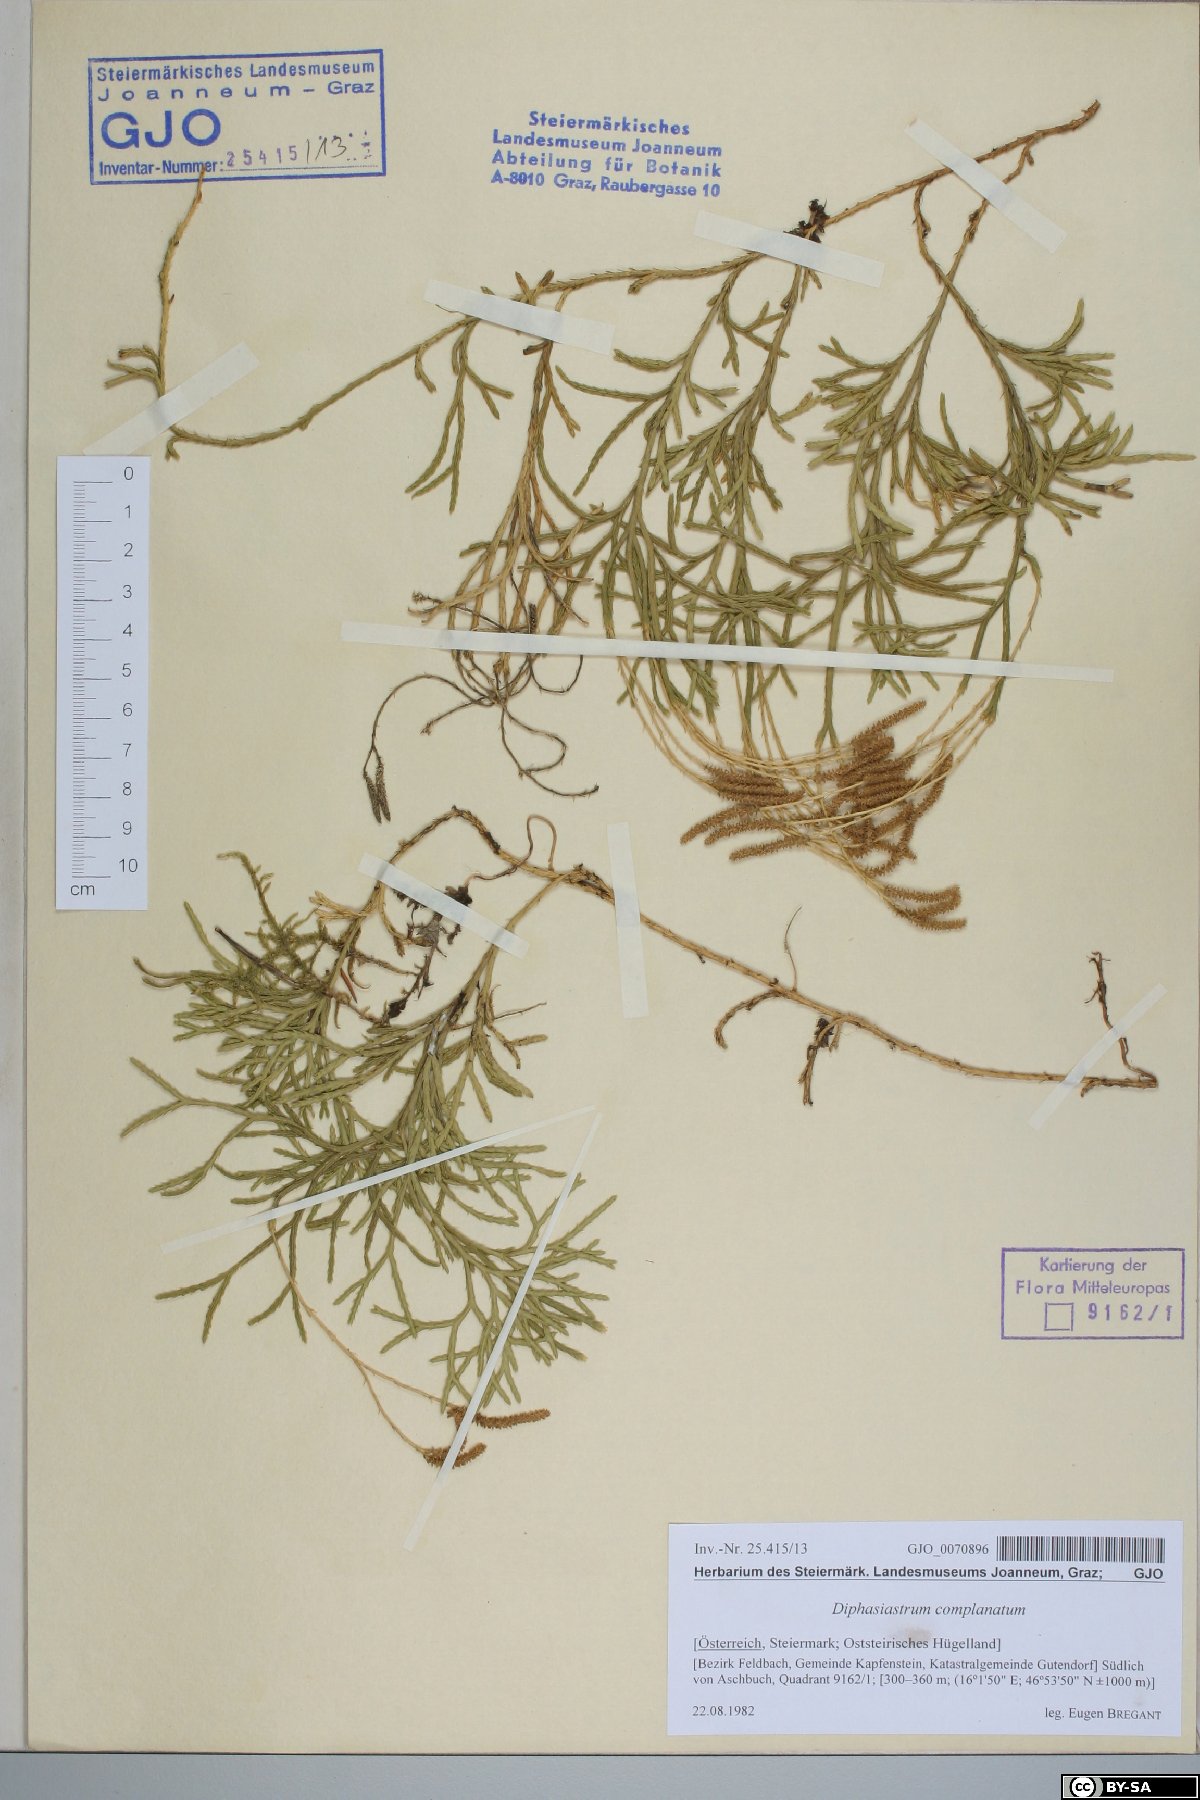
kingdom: Plantae
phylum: Tracheophyta
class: Lycopodiopsida
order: Lycopodiales
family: Lycopodiaceae
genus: Diphasiastrum
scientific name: Diphasiastrum complanatum
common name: Northern running-pine
